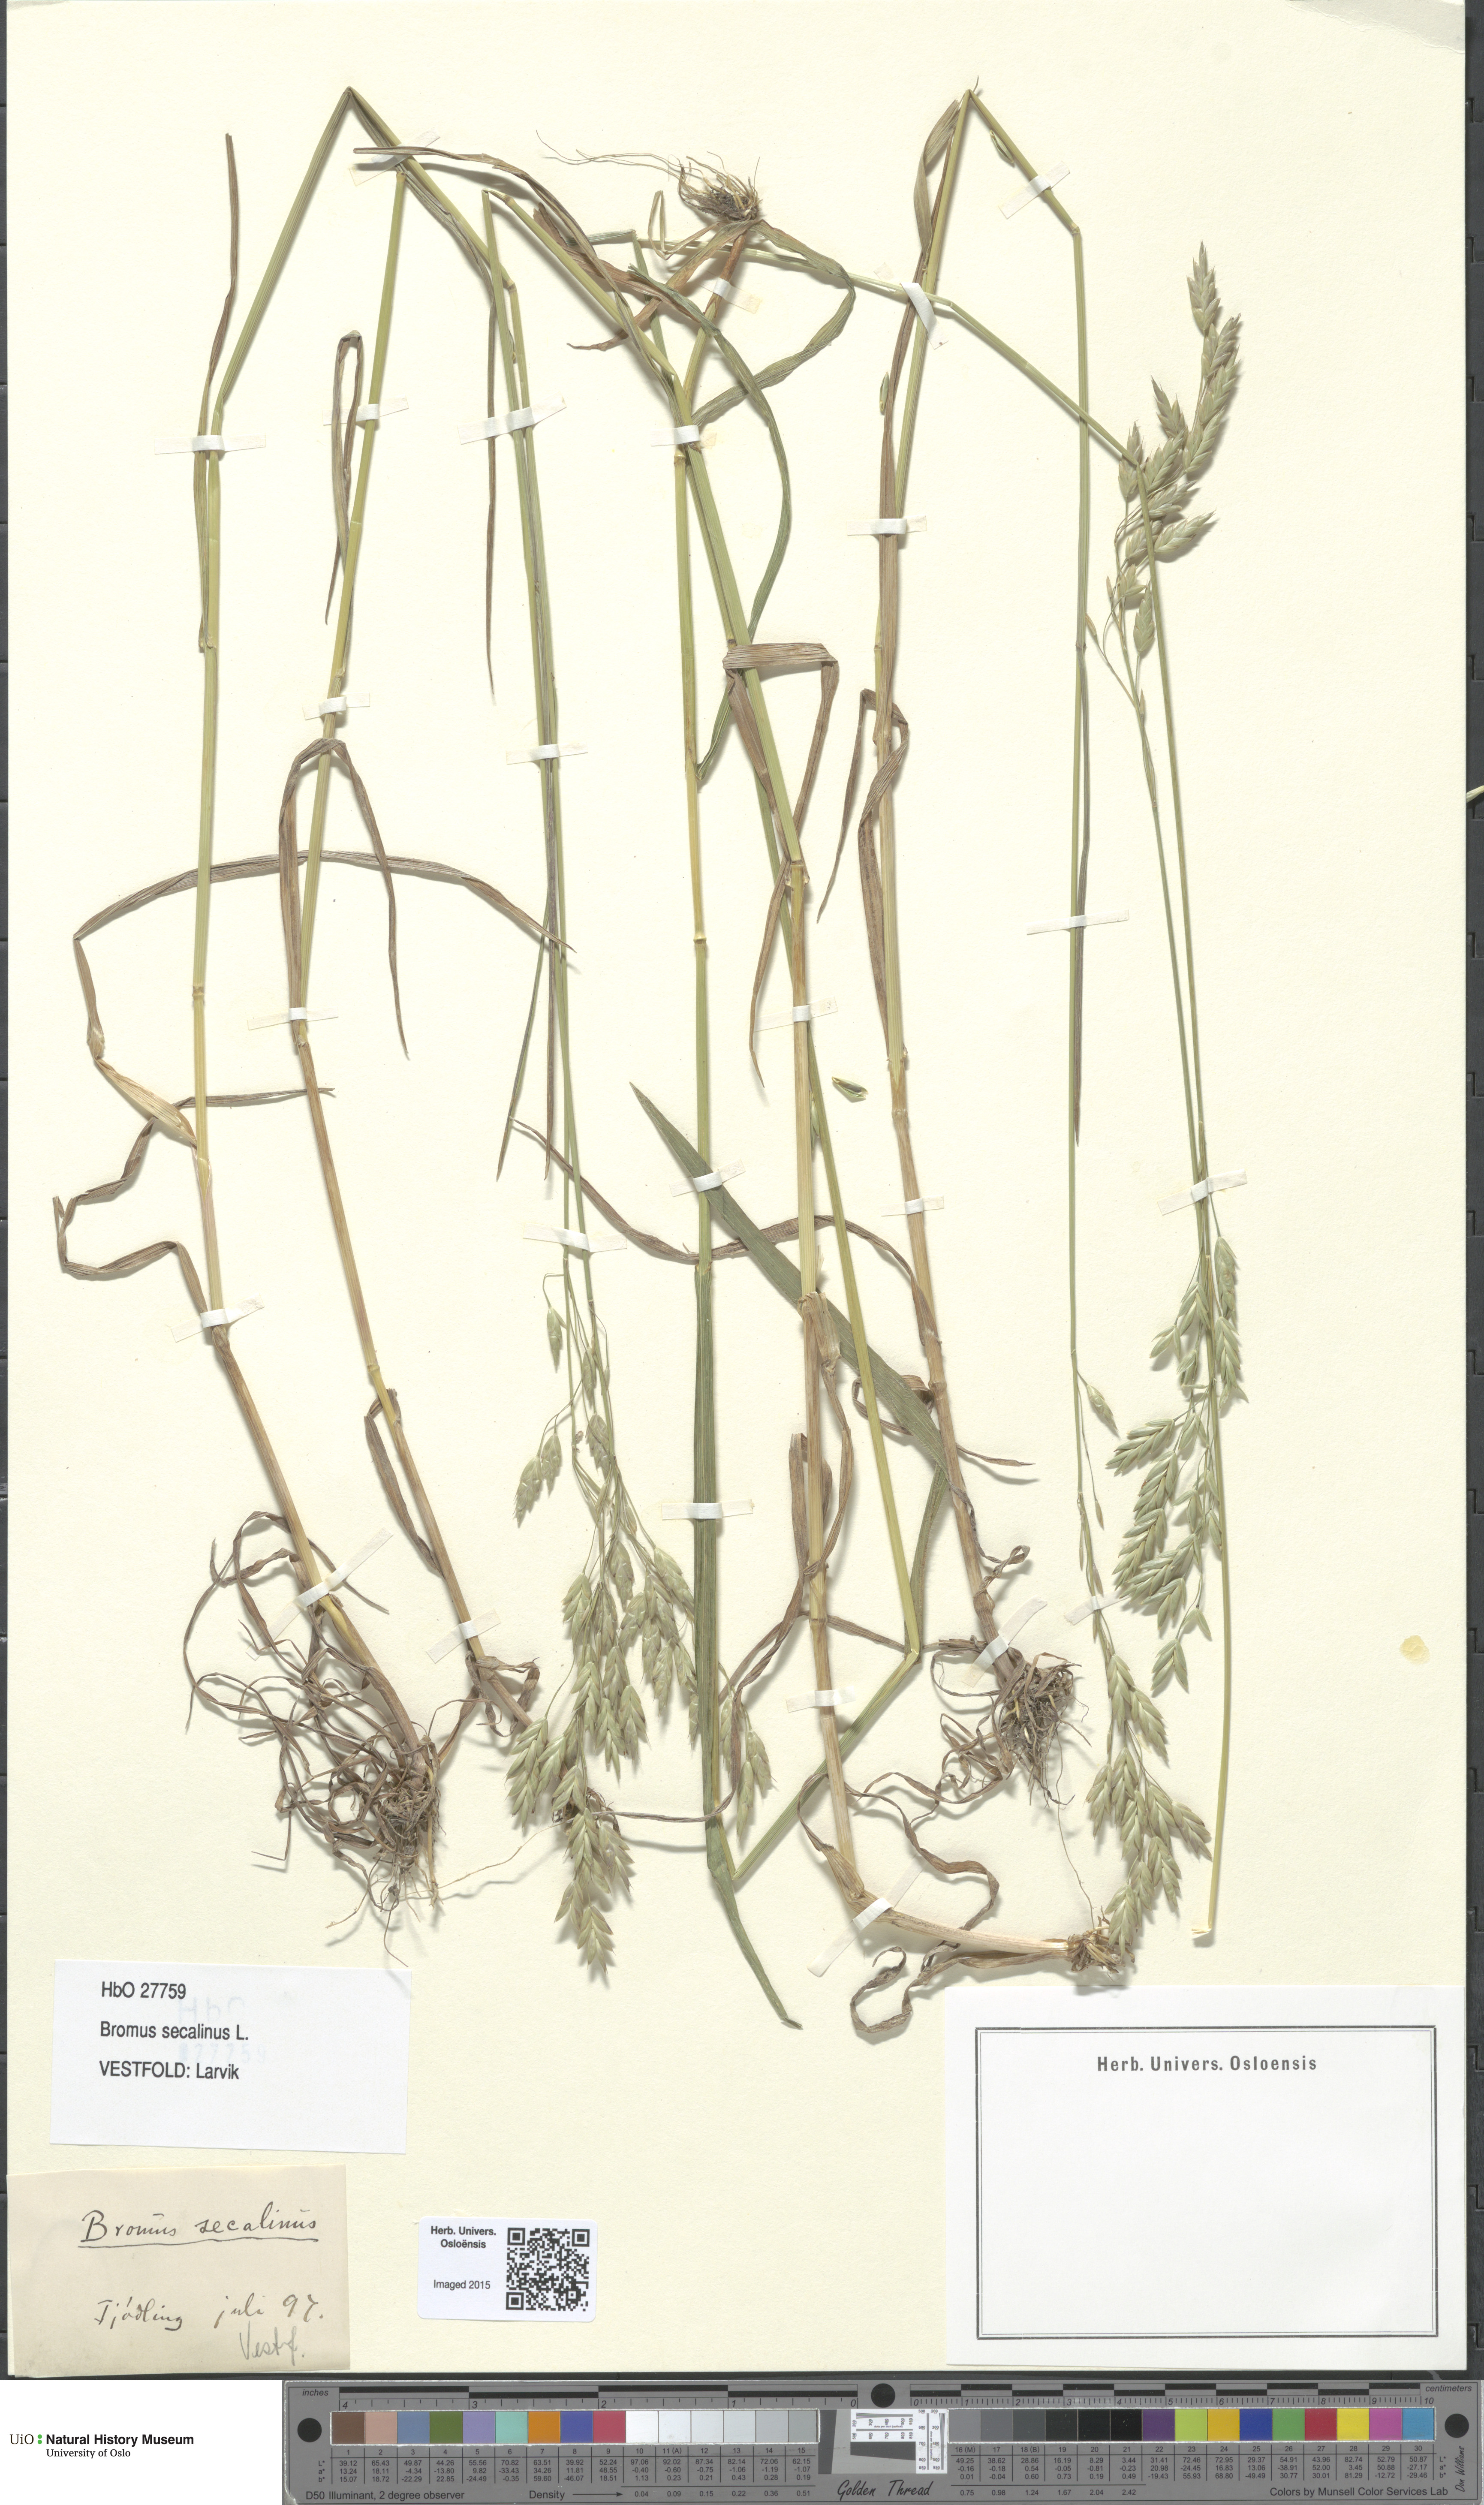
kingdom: Plantae
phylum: Tracheophyta
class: Liliopsida
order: Poales
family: Poaceae
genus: Bromus
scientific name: Bromus secalinus
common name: Rye brome
